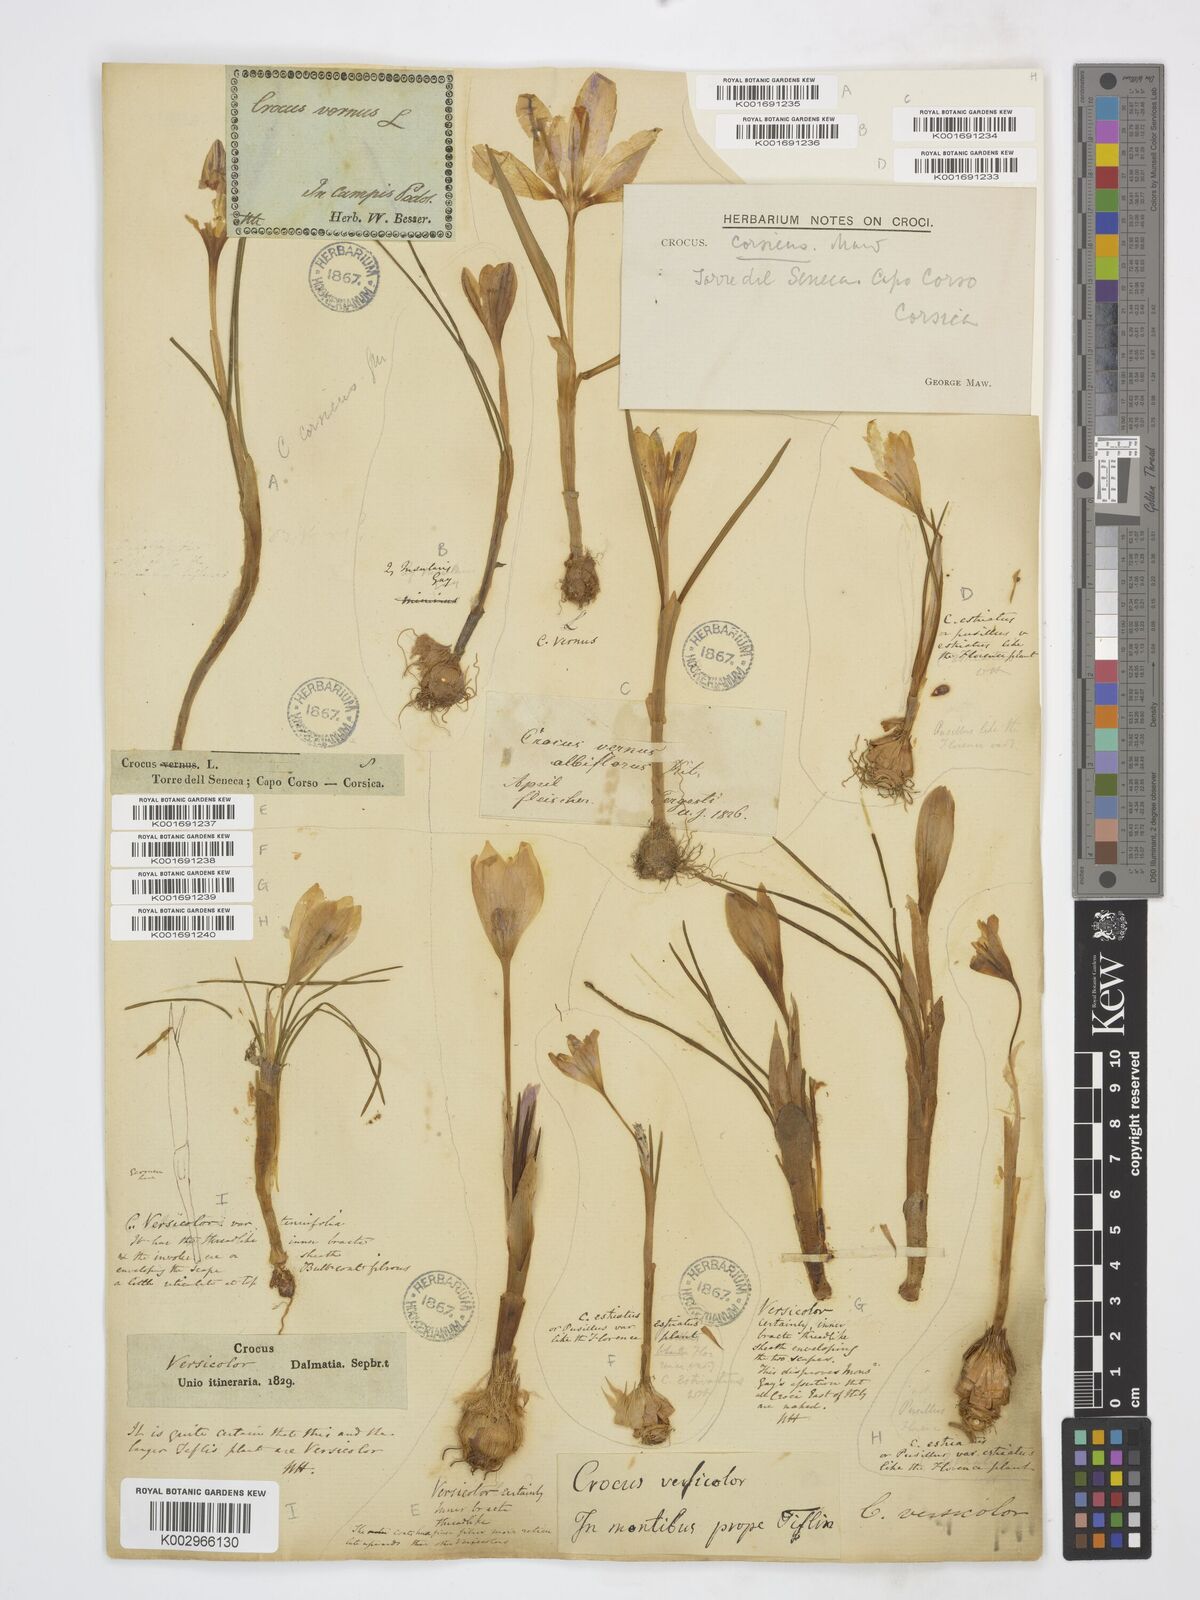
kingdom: Plantae
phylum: Tracheophyta
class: Liliopsida
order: Asparagales
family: Iridaceae
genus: Crocus
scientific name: Crocus versicolor
